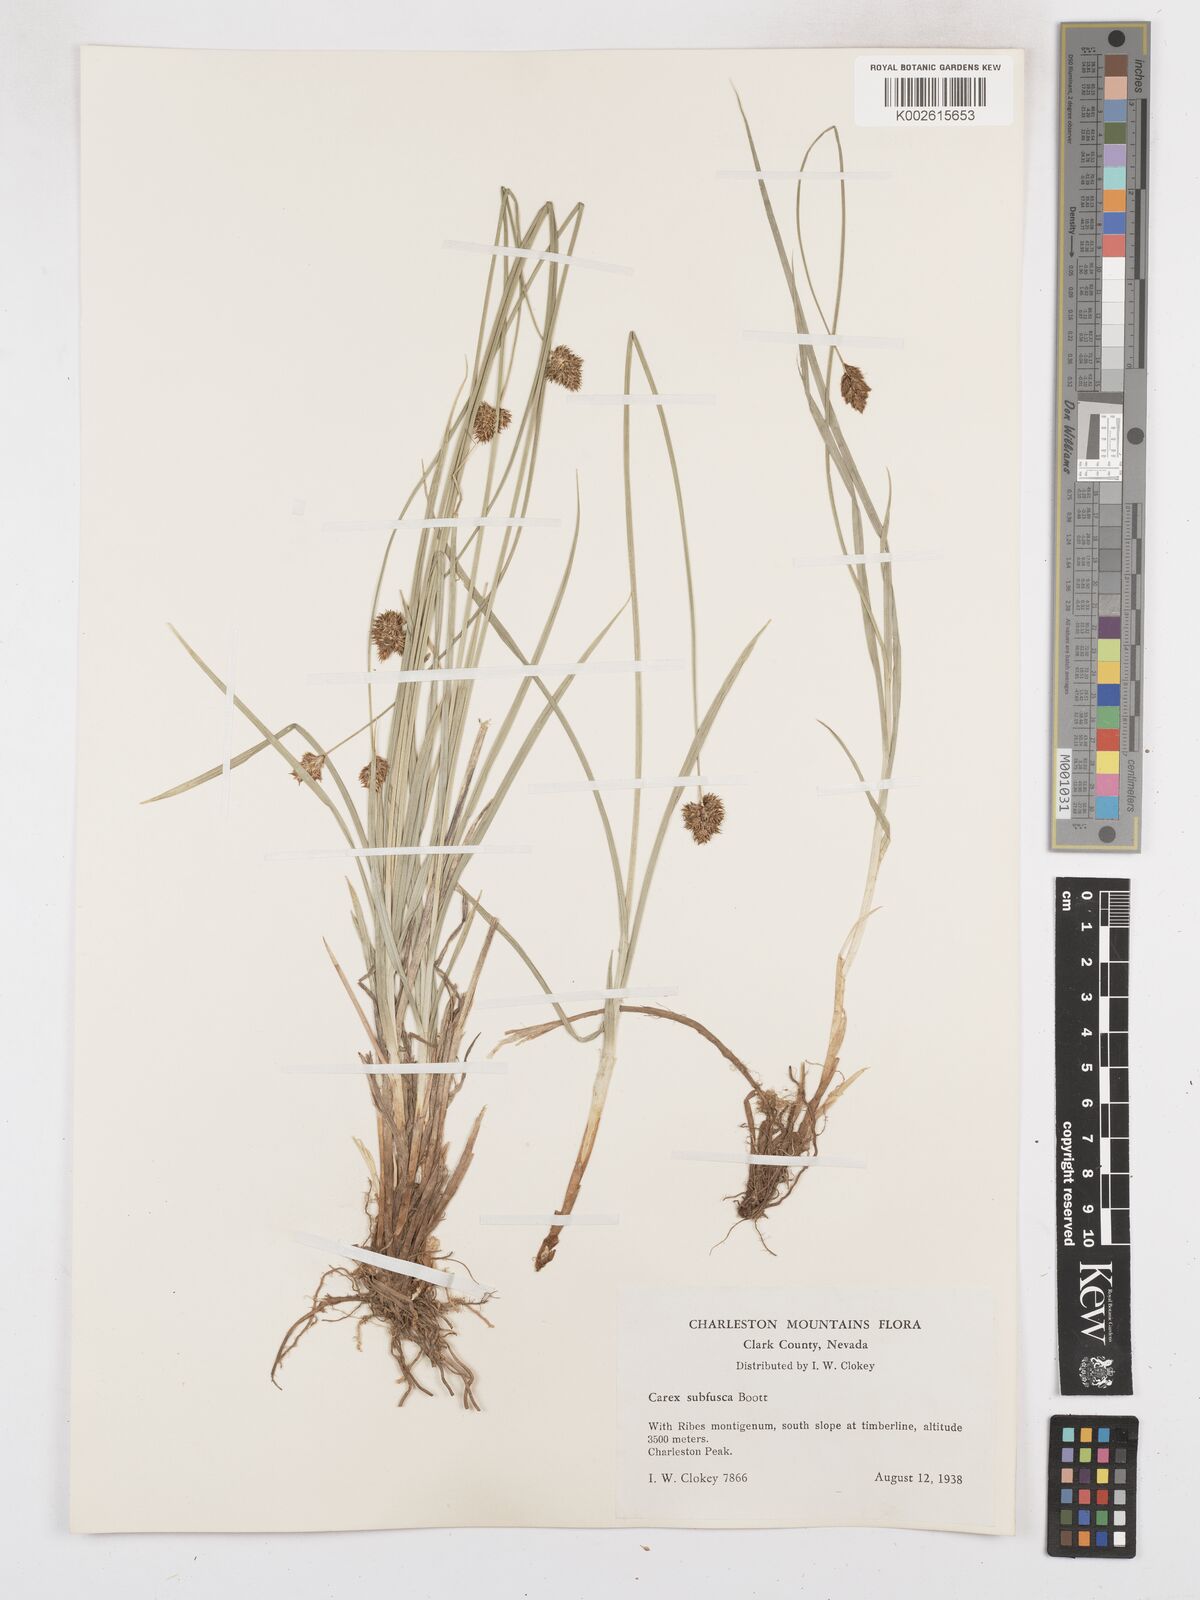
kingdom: Plantae
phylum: Tracheophyta
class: Liliopsida
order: Poales
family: Cyperaceae
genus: Carex
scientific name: Carex subfusca
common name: Brown sedge
